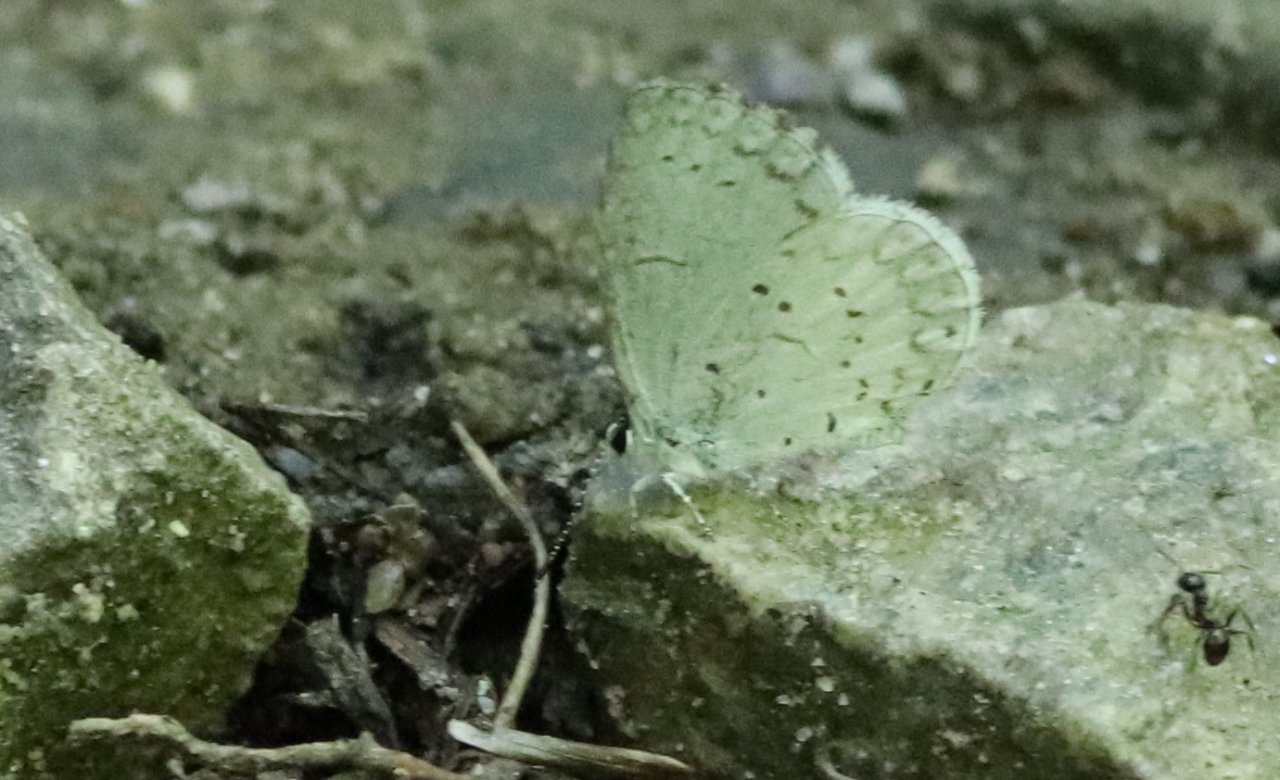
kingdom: Animalia
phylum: Arthropoda
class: Insecta
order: Lepidoptera
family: Lycaenidae
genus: Cyaniris
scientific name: Cyaniris neglecta
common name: Summer Azure
